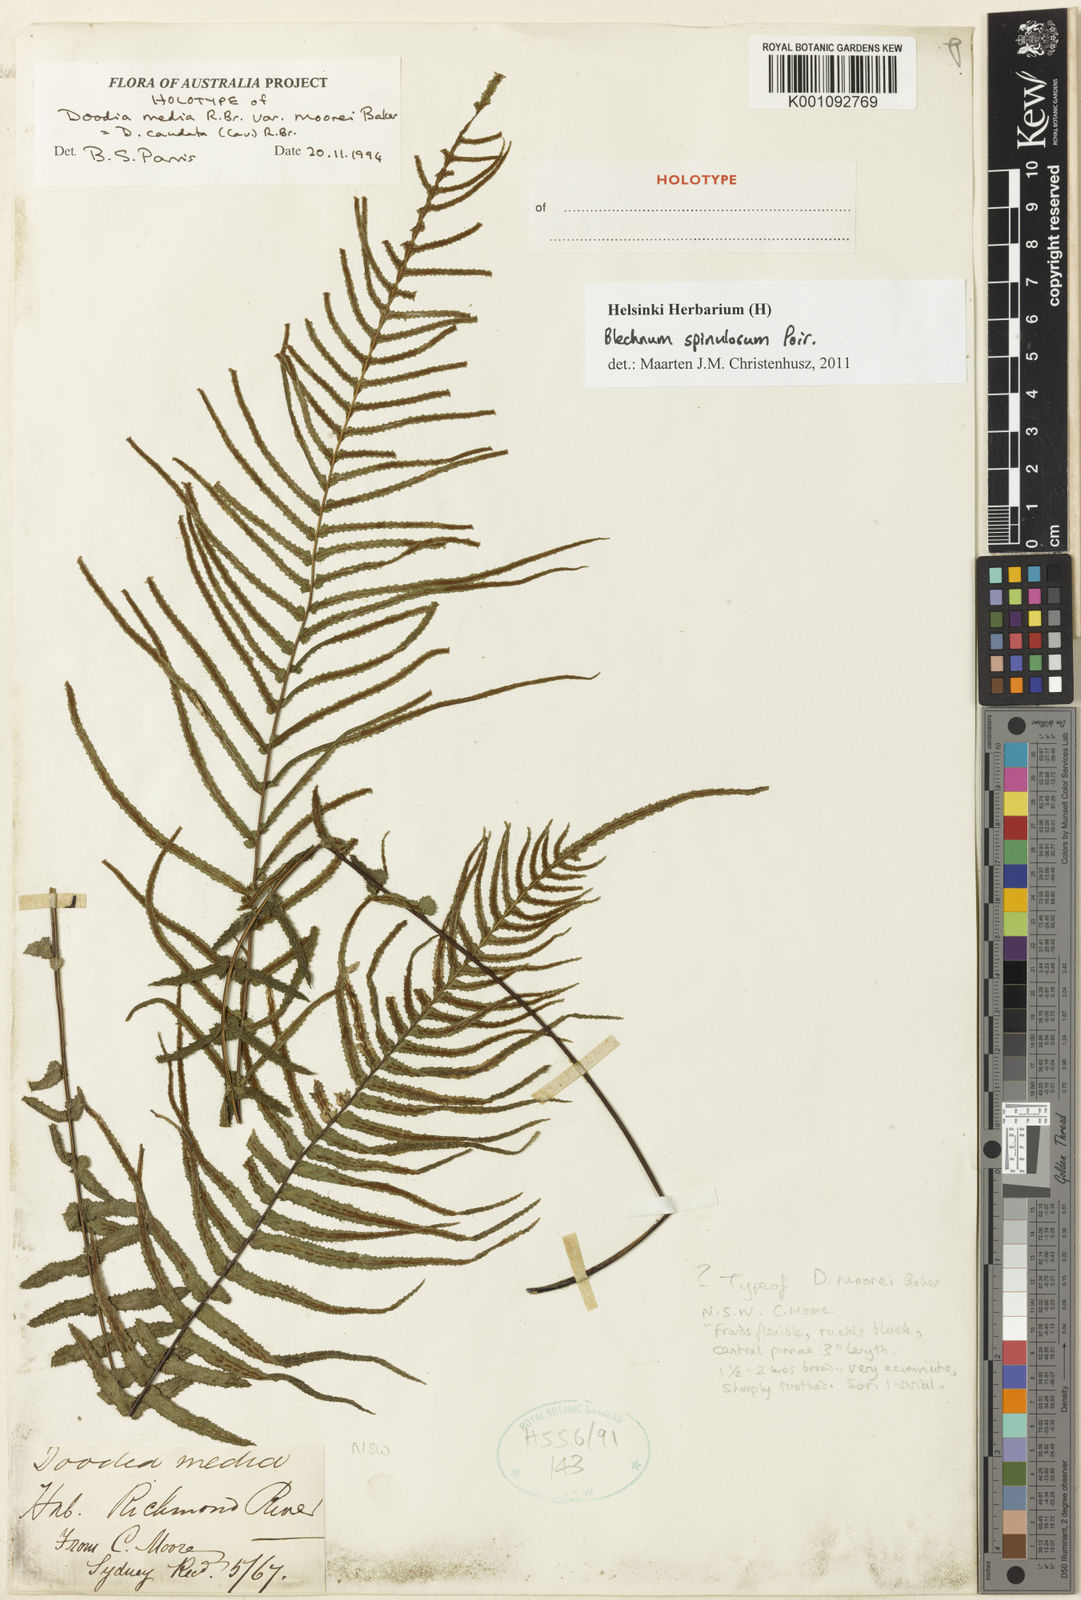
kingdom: Plantae
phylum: Tracheophyta
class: Polypodiopsida
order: Polypodiales
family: Blechnaceae
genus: Doodia
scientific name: Doodia caudata
